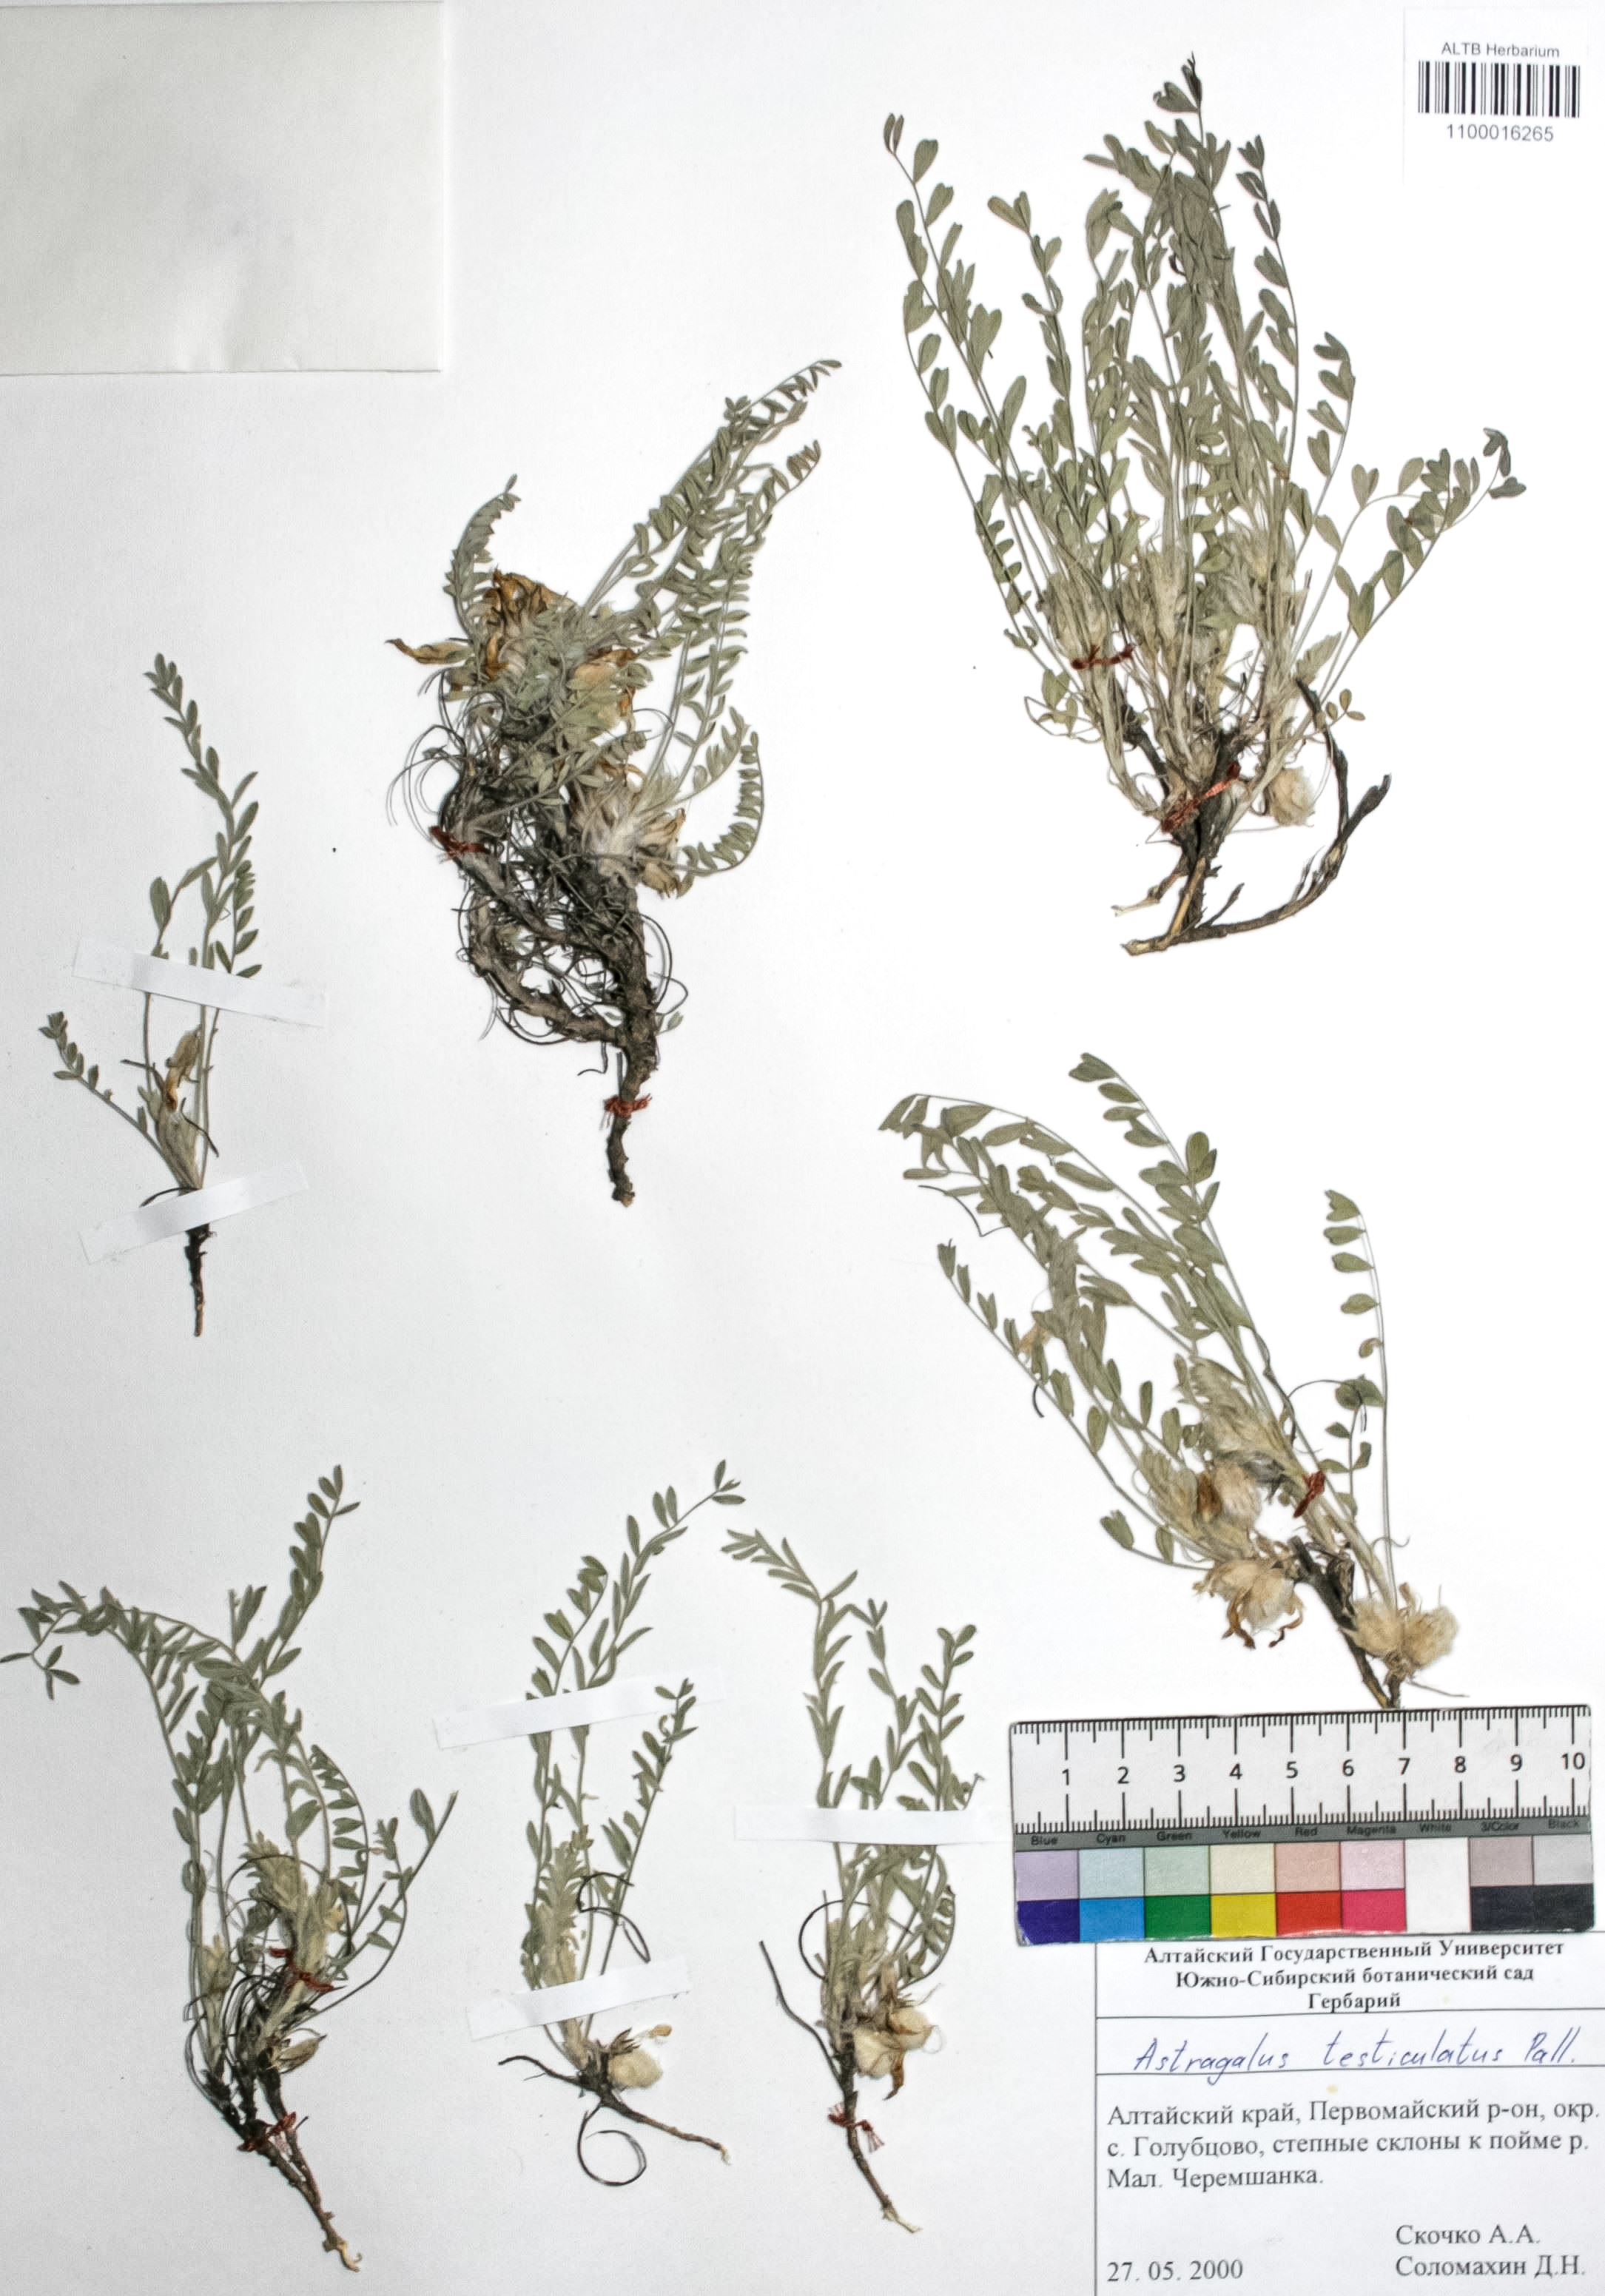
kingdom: Plantae
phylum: Tracheophyta
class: Magnoliopsida
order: Fabales
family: Fabaceae
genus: Astragalus
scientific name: Astragalus testiculatus
